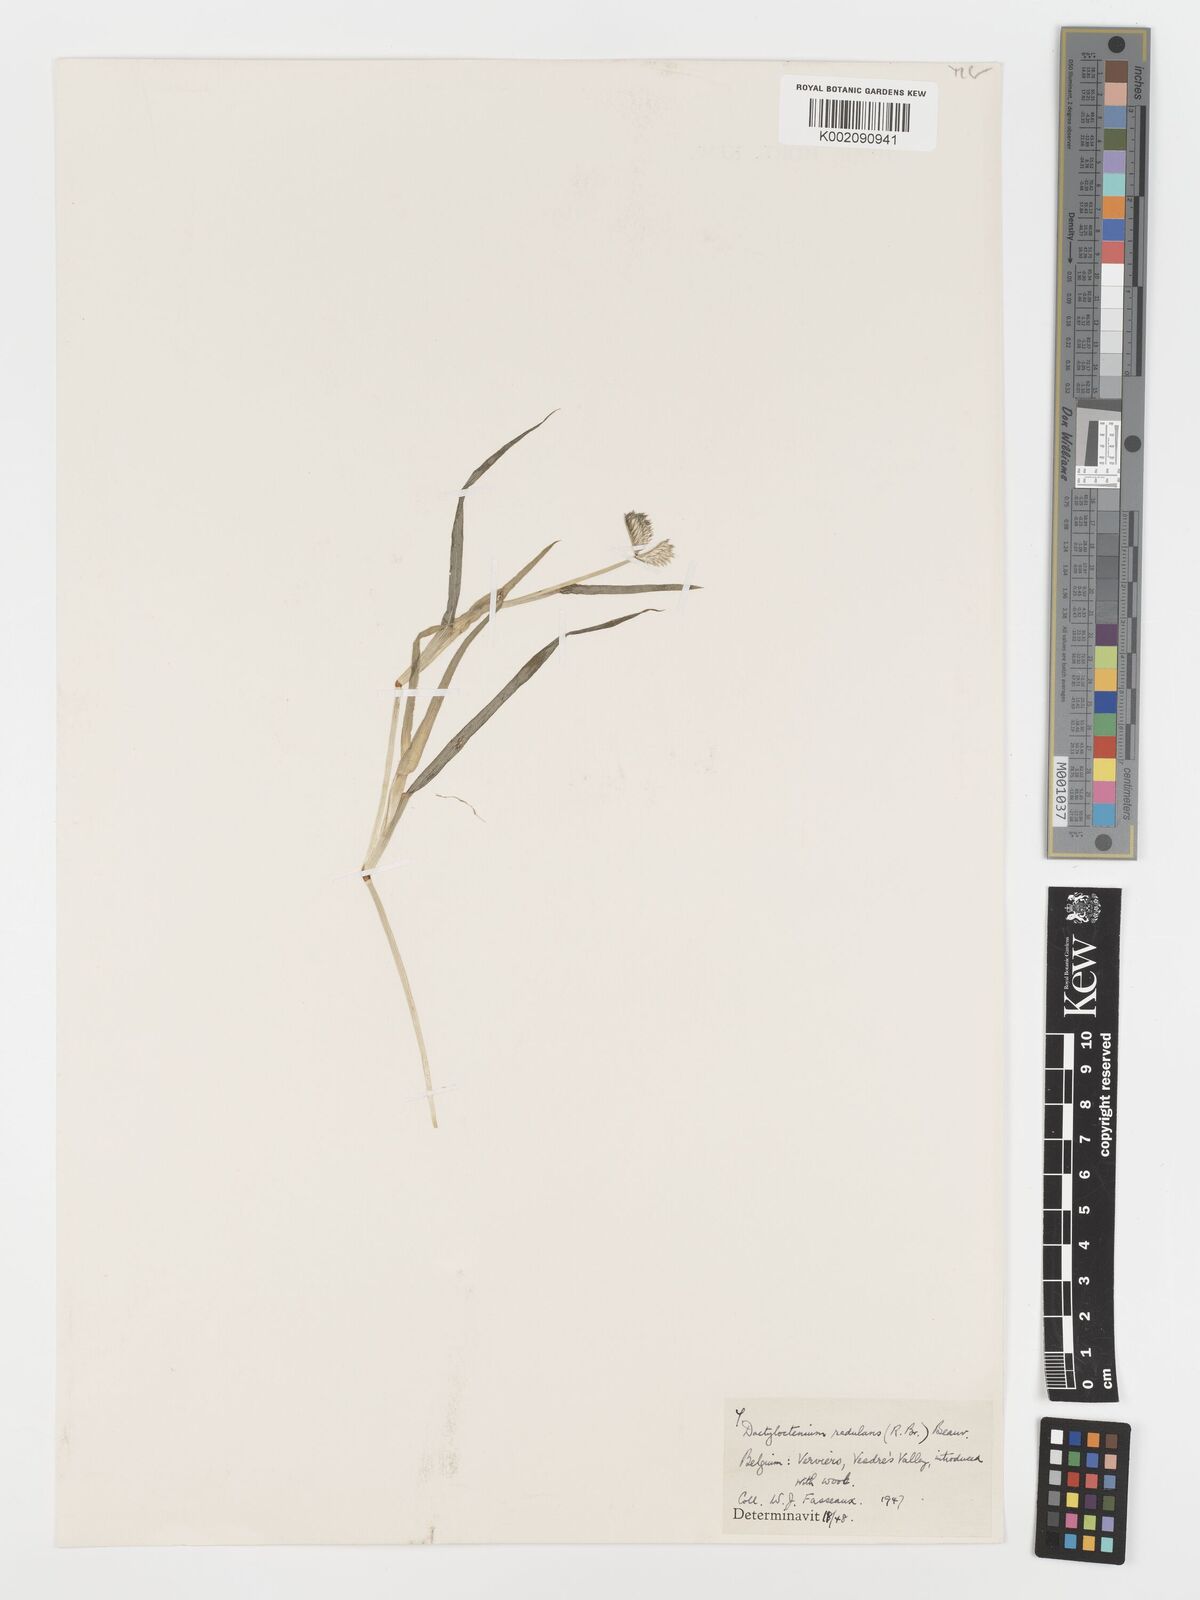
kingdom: Plantae
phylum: Tracheophyta
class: Liliopsida
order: Poales
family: Poaceae
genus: Dactyloctenium
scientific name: Dactyloctenium radulans
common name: Button-grass
